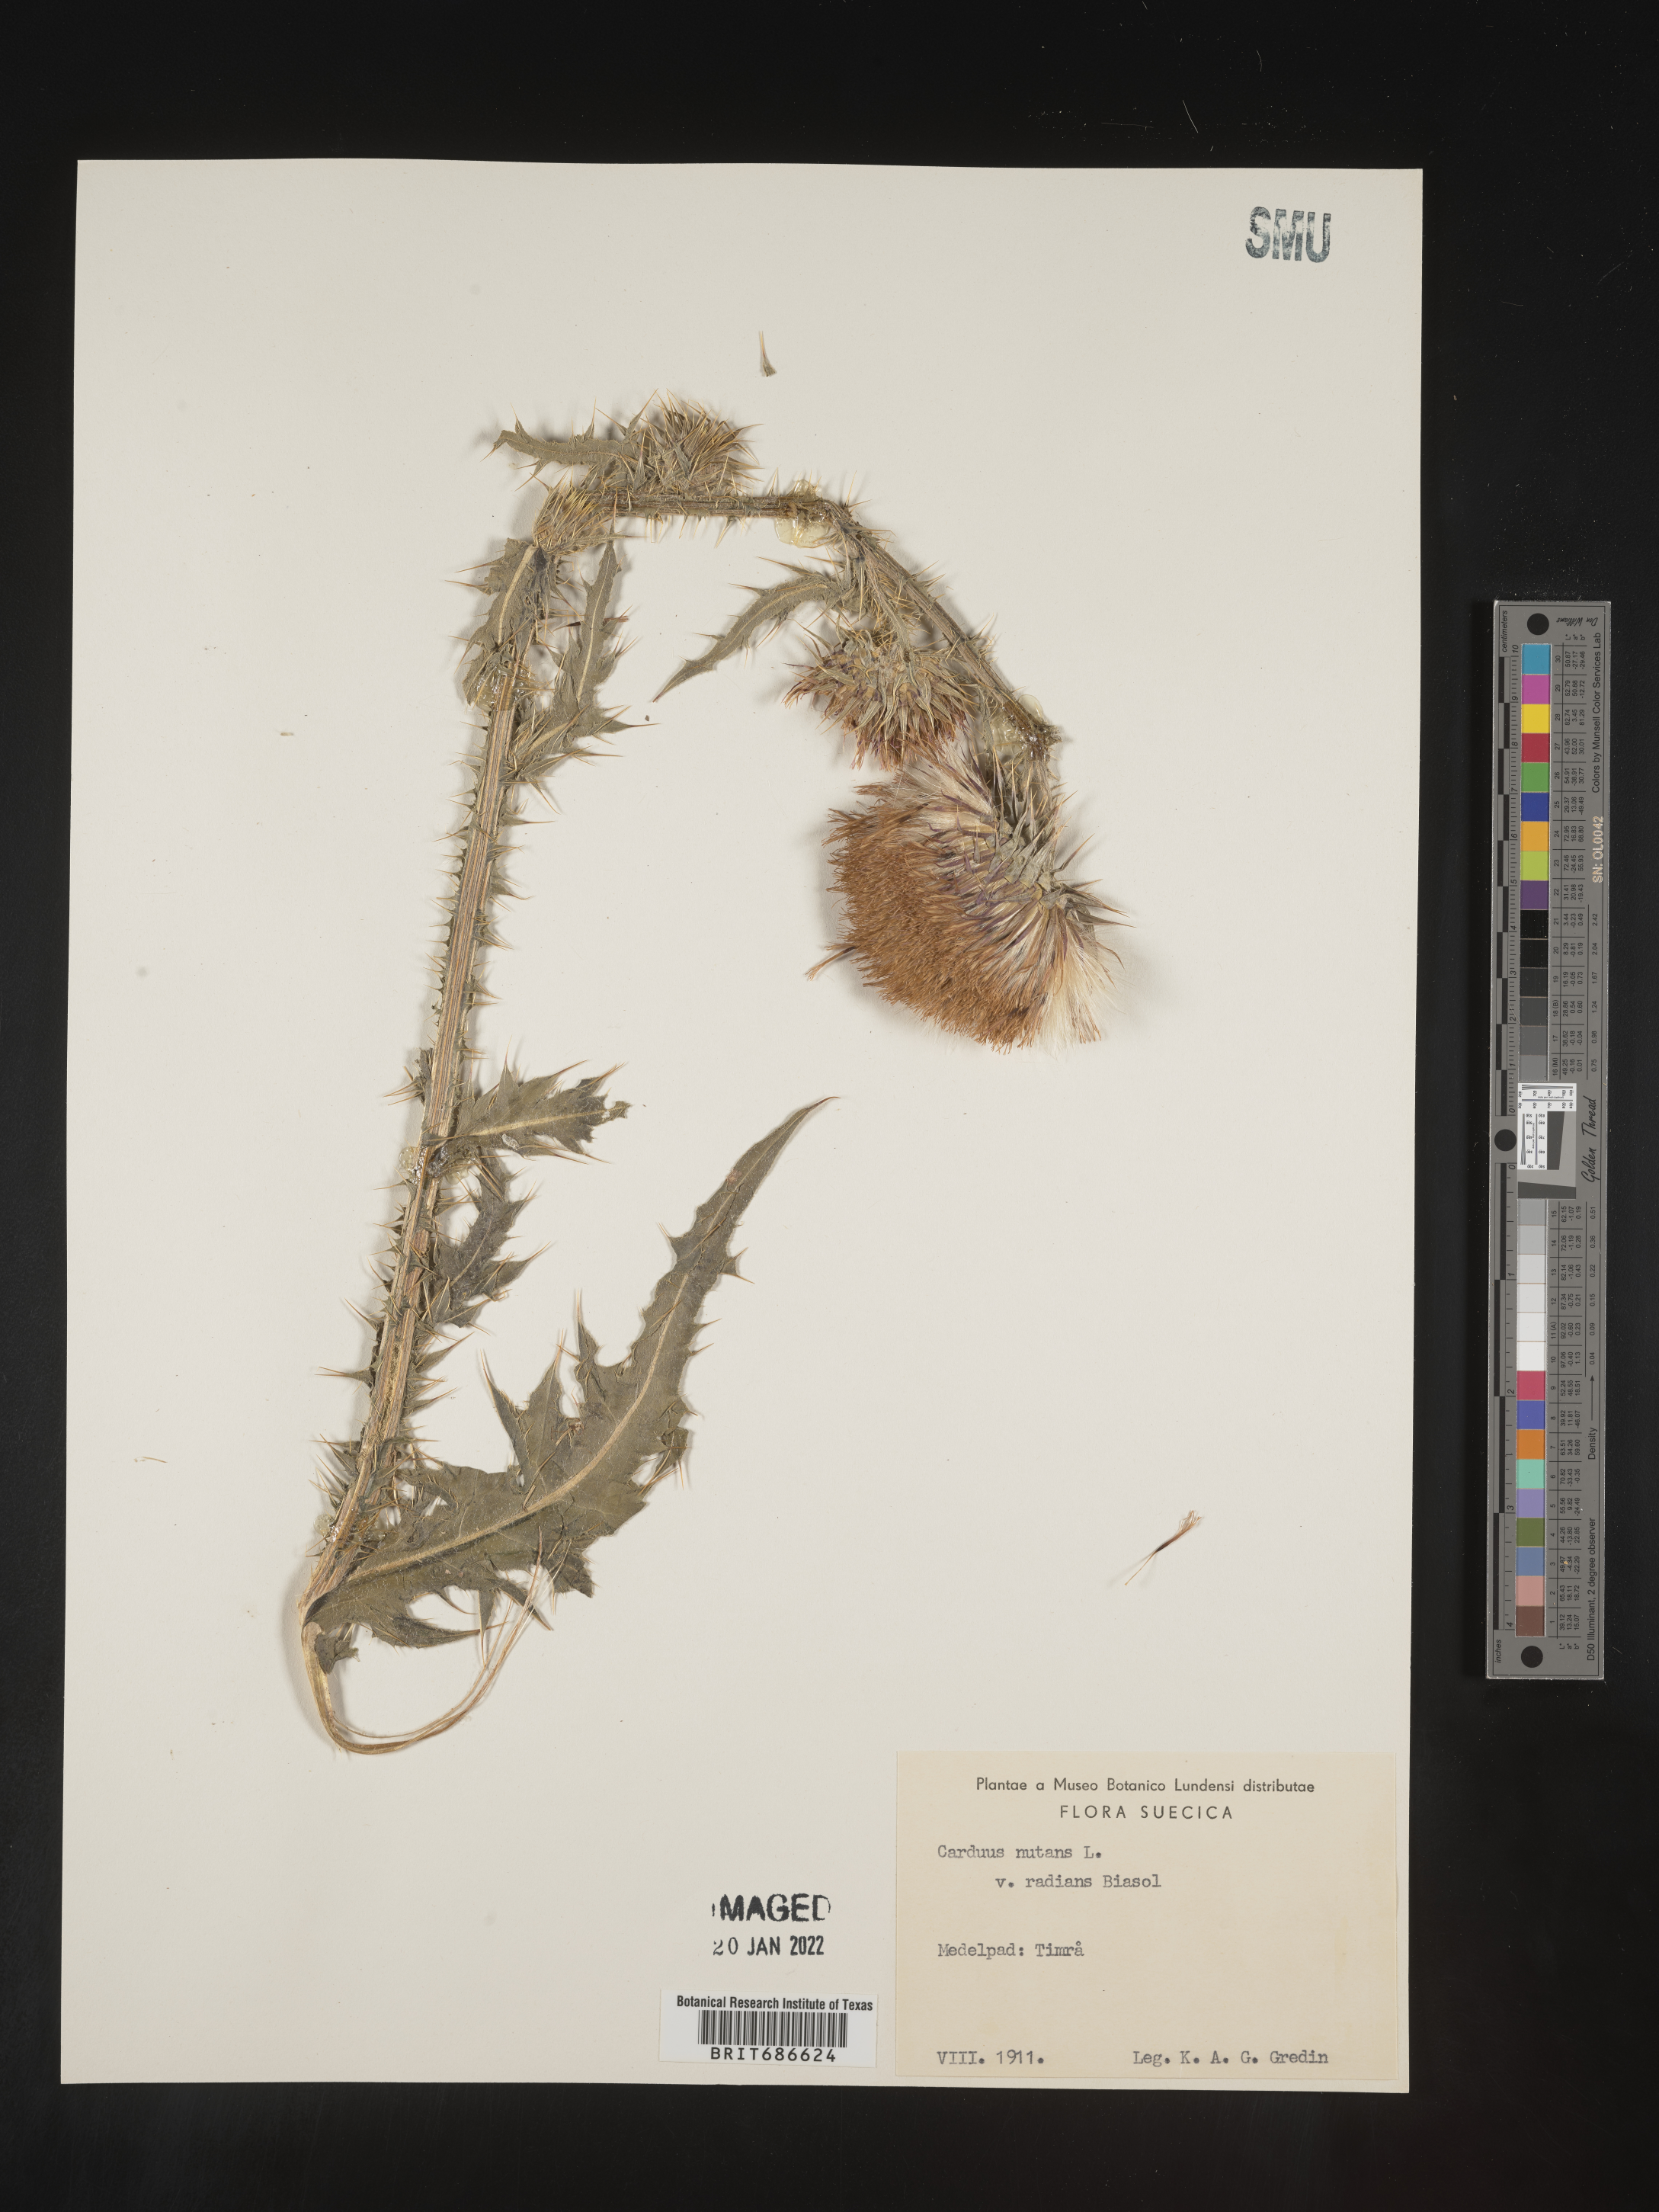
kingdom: Plantae
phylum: Tracheophyta
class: Magnoliopsida
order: Asterales
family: Asteraceae
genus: Carduus
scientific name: Carduus nutans
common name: Musk thistle
